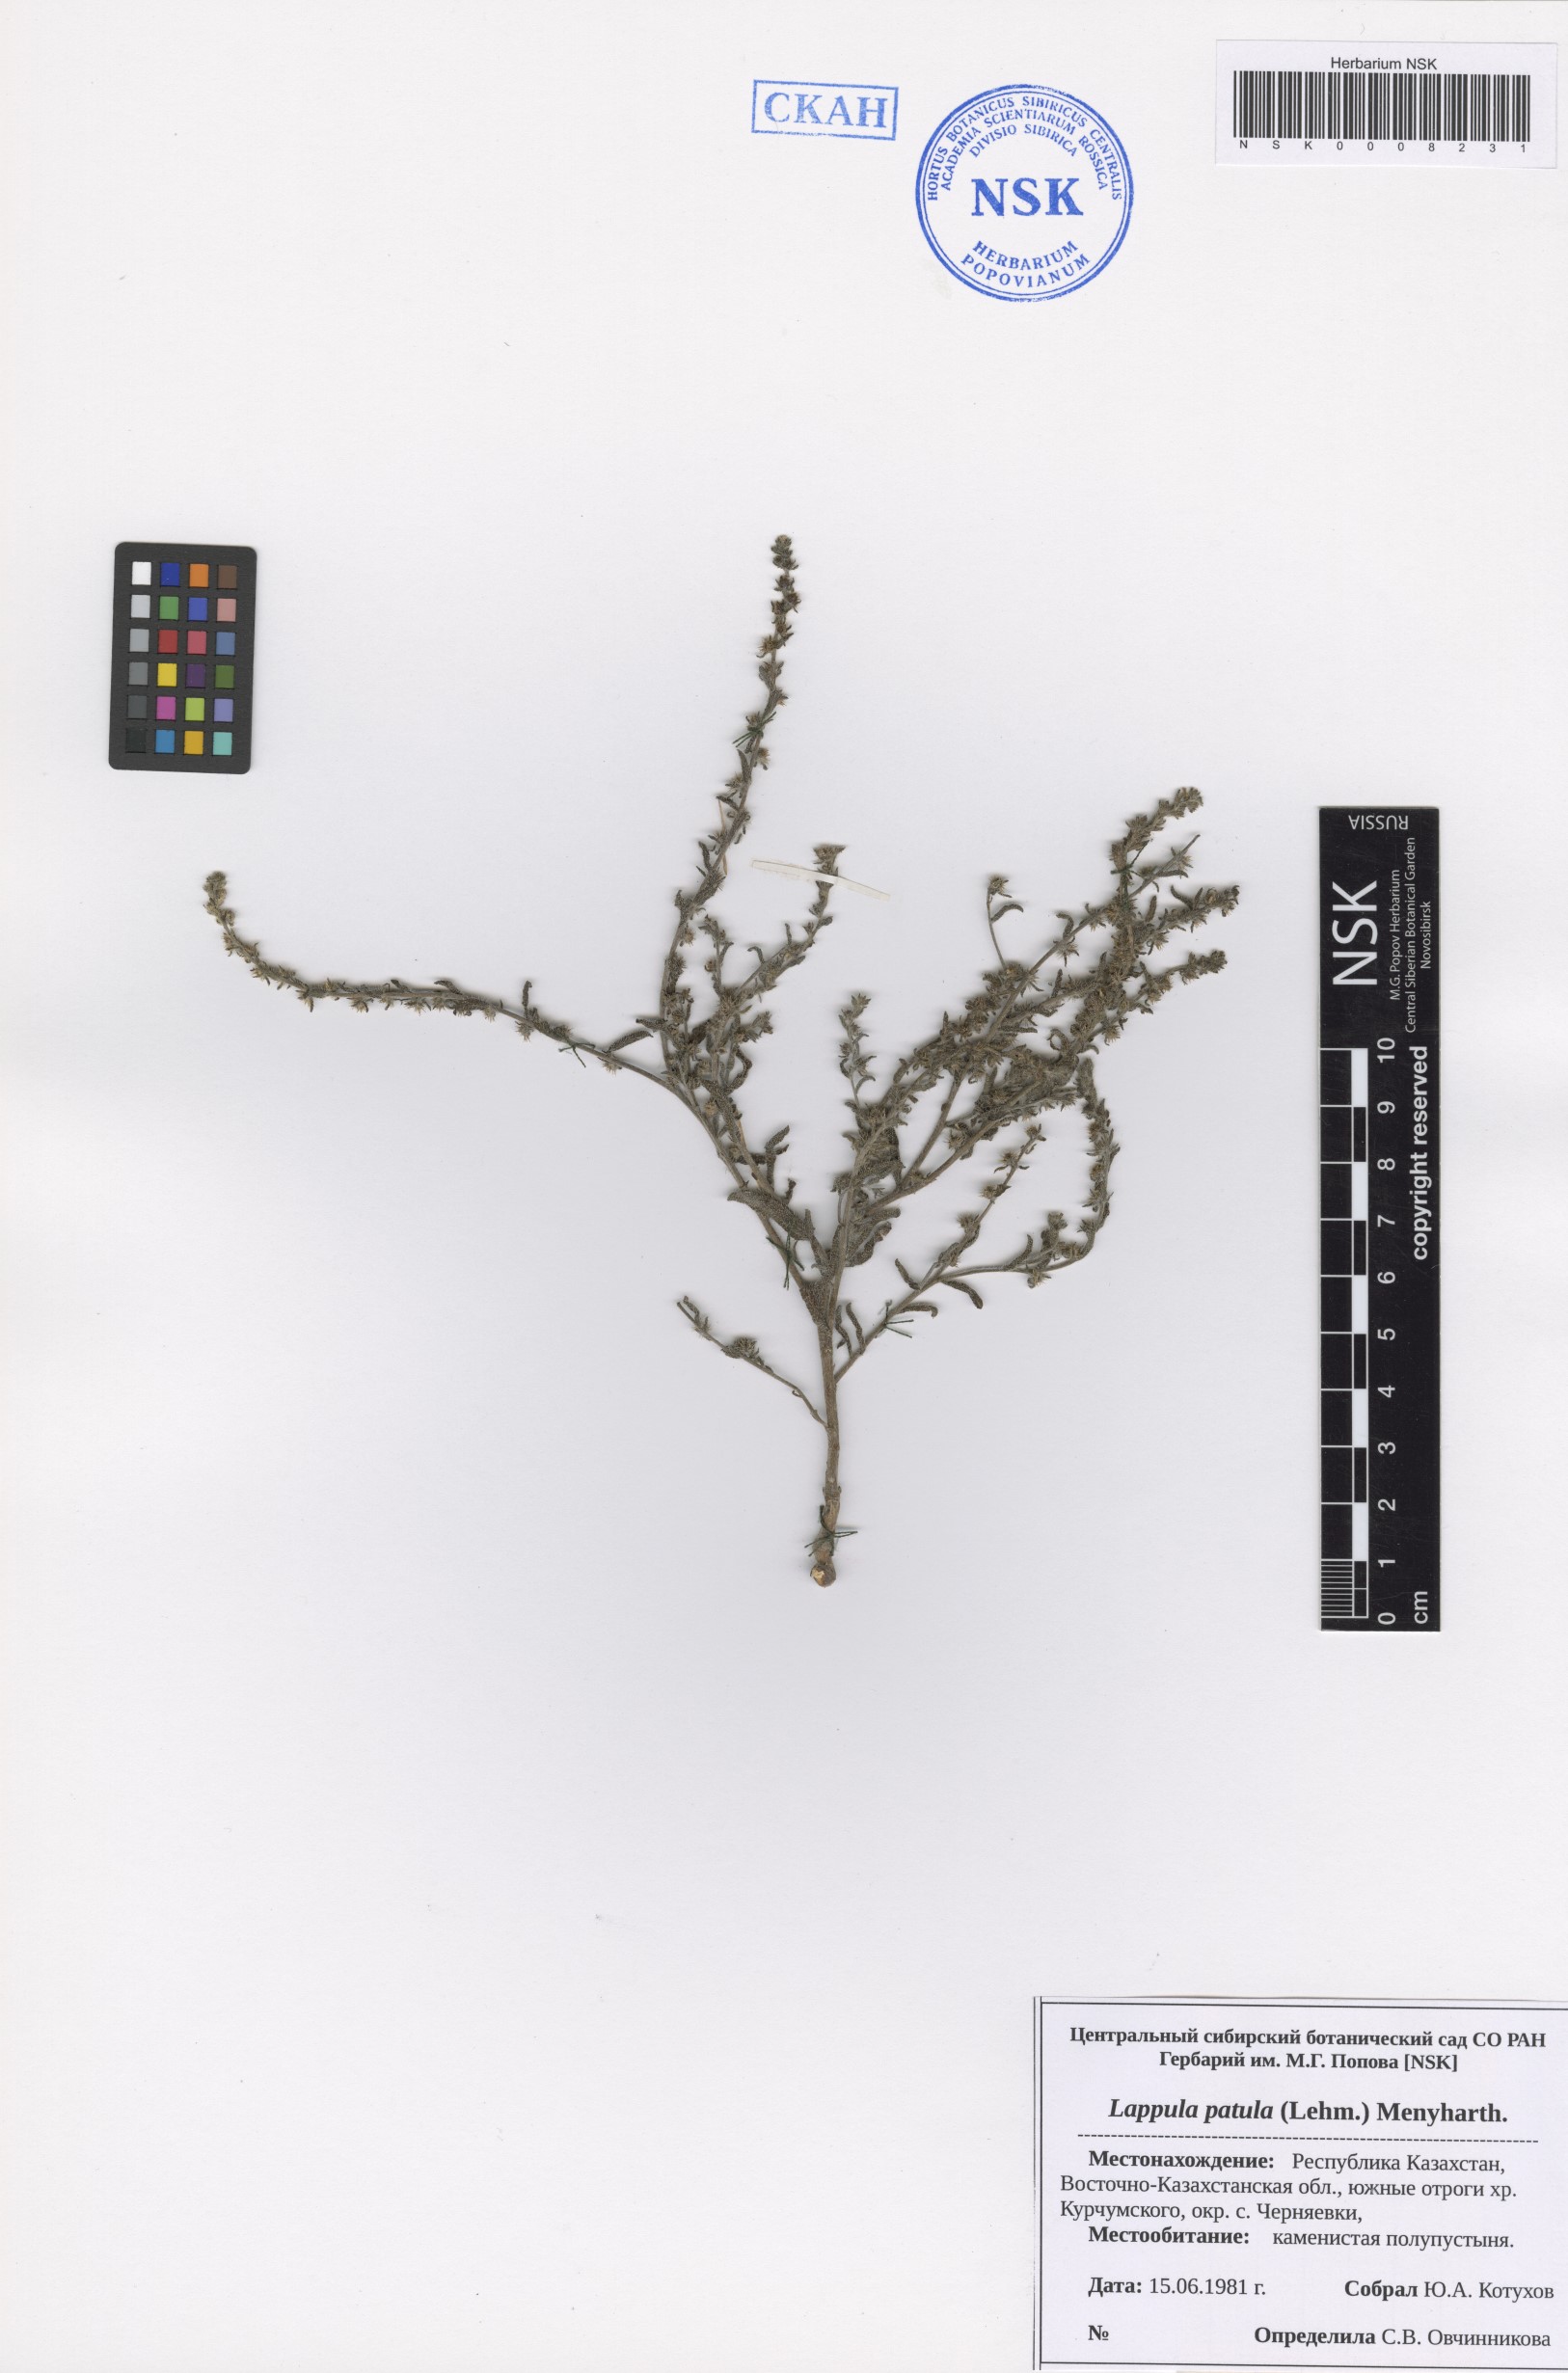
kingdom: Plantae
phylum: Tracheophyta
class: Magnoliopsida
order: Boraginales
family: Boraginaceae
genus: Lappula
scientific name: Lappula patula
